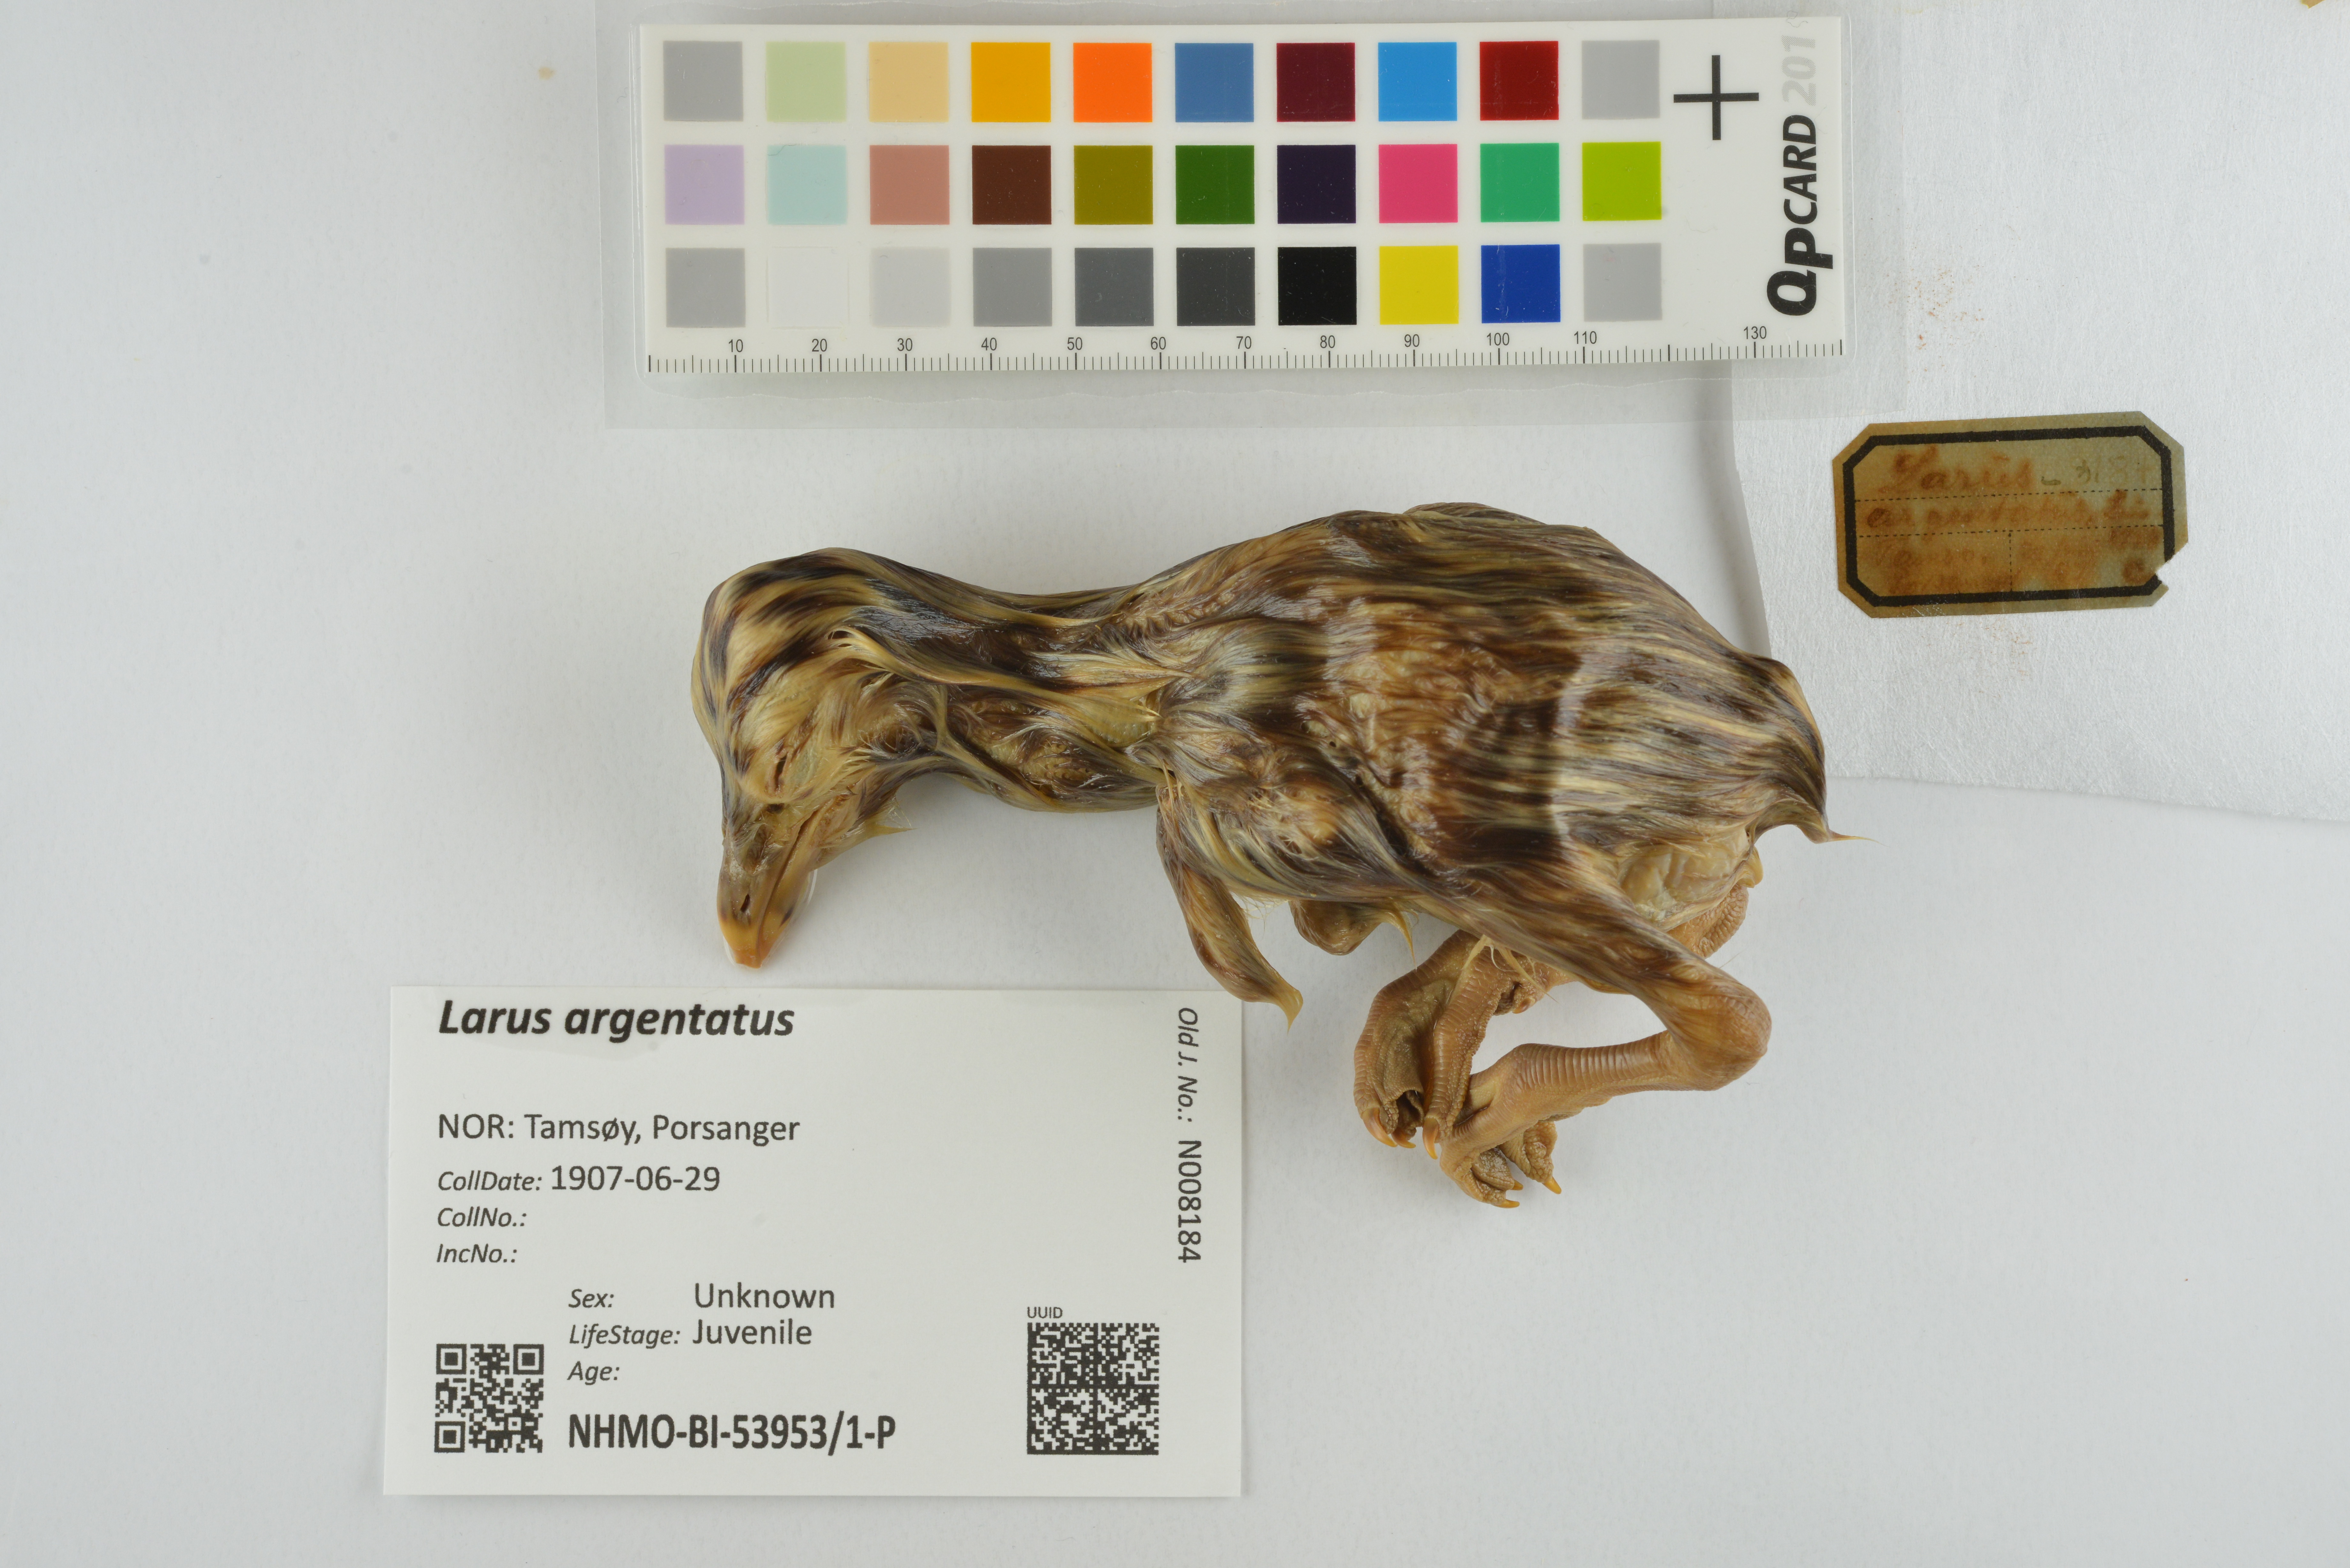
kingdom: Animalia
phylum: Chordata
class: Aves
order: Charadriiformes
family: Laridae
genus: Larus
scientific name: Larus argentatus
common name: Herring gull
